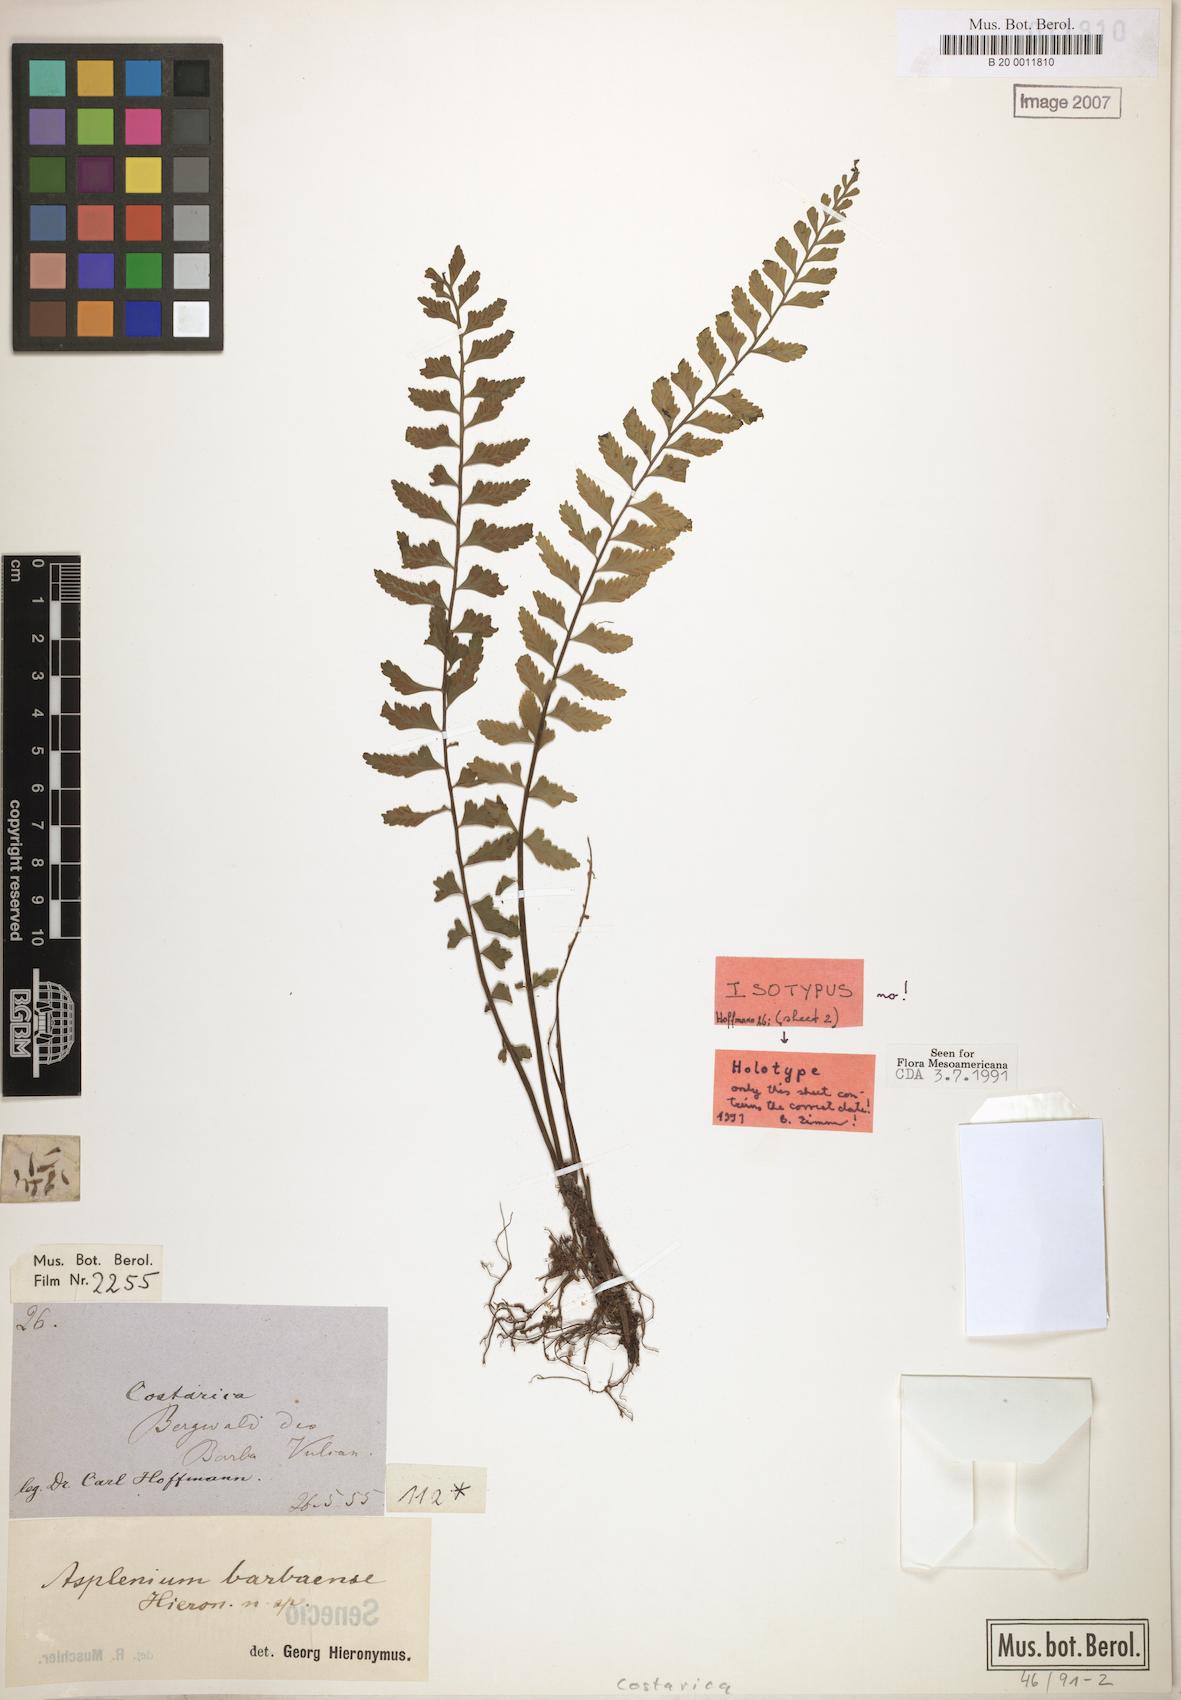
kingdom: Plantae
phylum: Tracheophyta
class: Polypodiopsida
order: Polypodiales
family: Aspleniaceae
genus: Asplenium
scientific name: Asplenium barbaense
